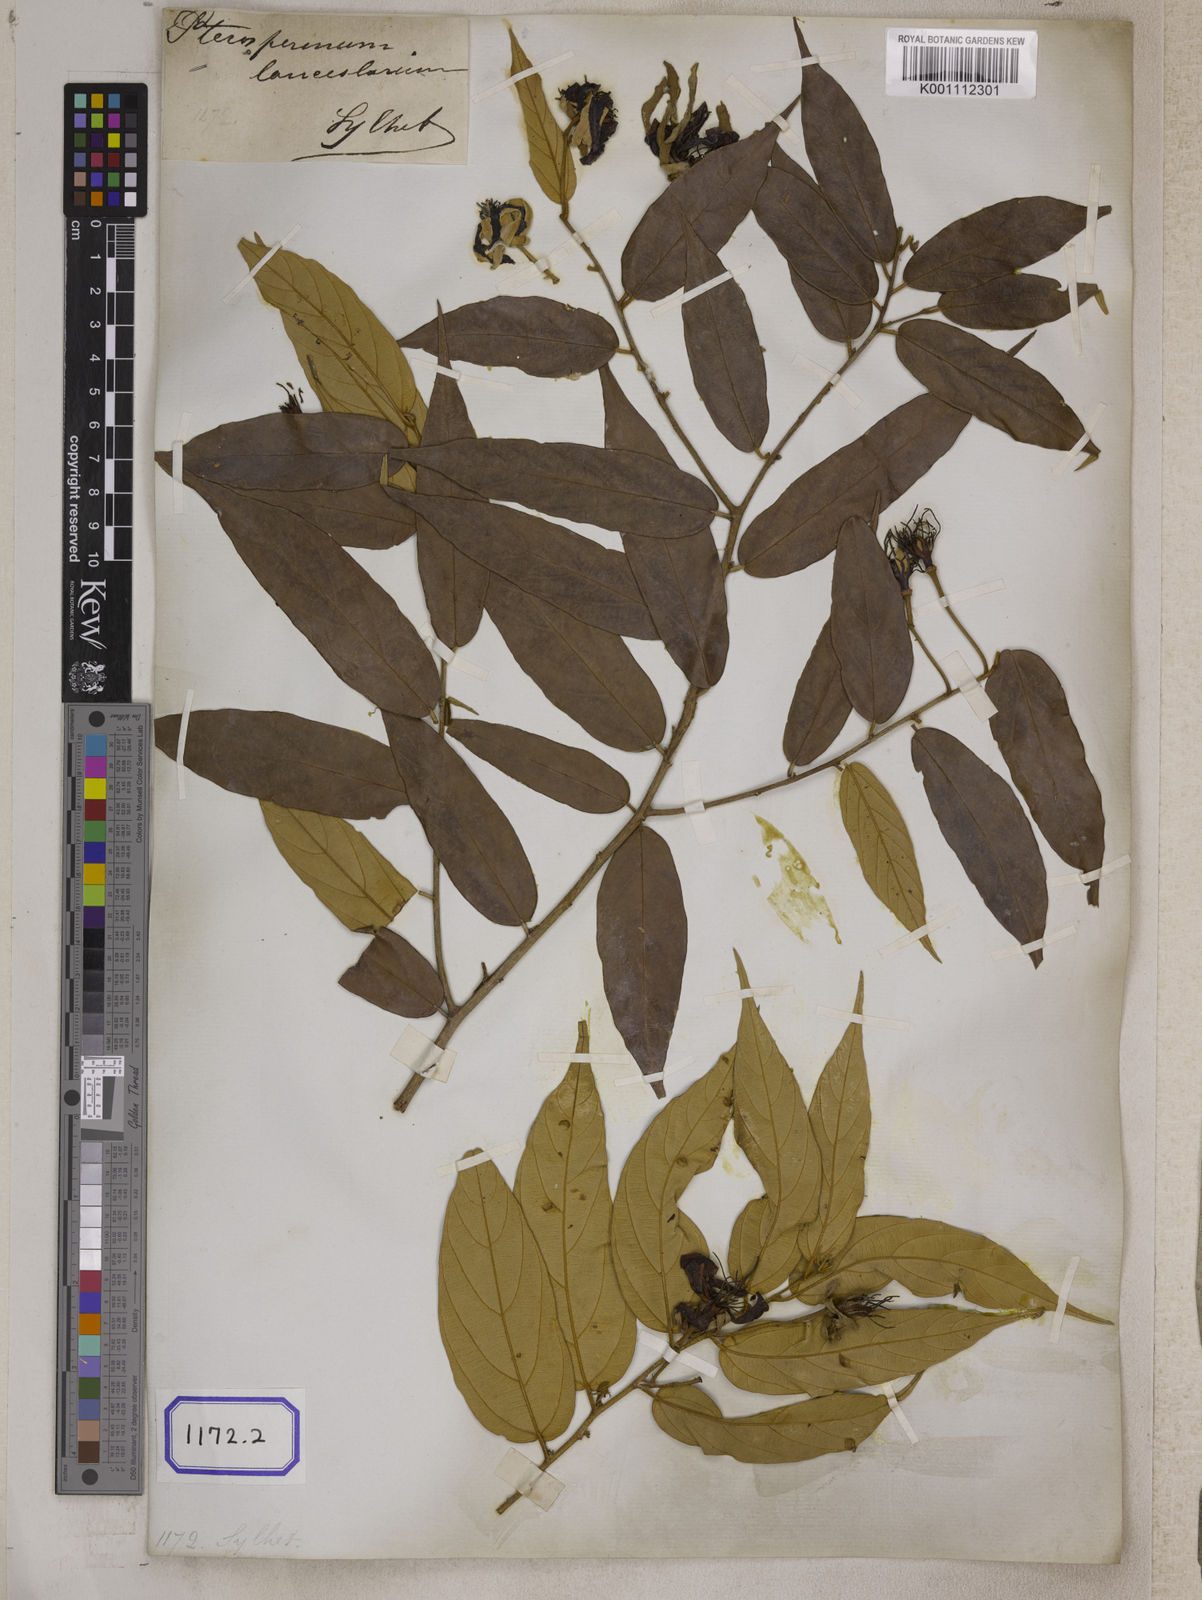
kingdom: Plantae
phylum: Tracheophyta
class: Magnoliopsida
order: Malvales
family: Malvaceae
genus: Pterospermum
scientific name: Pterospermum
